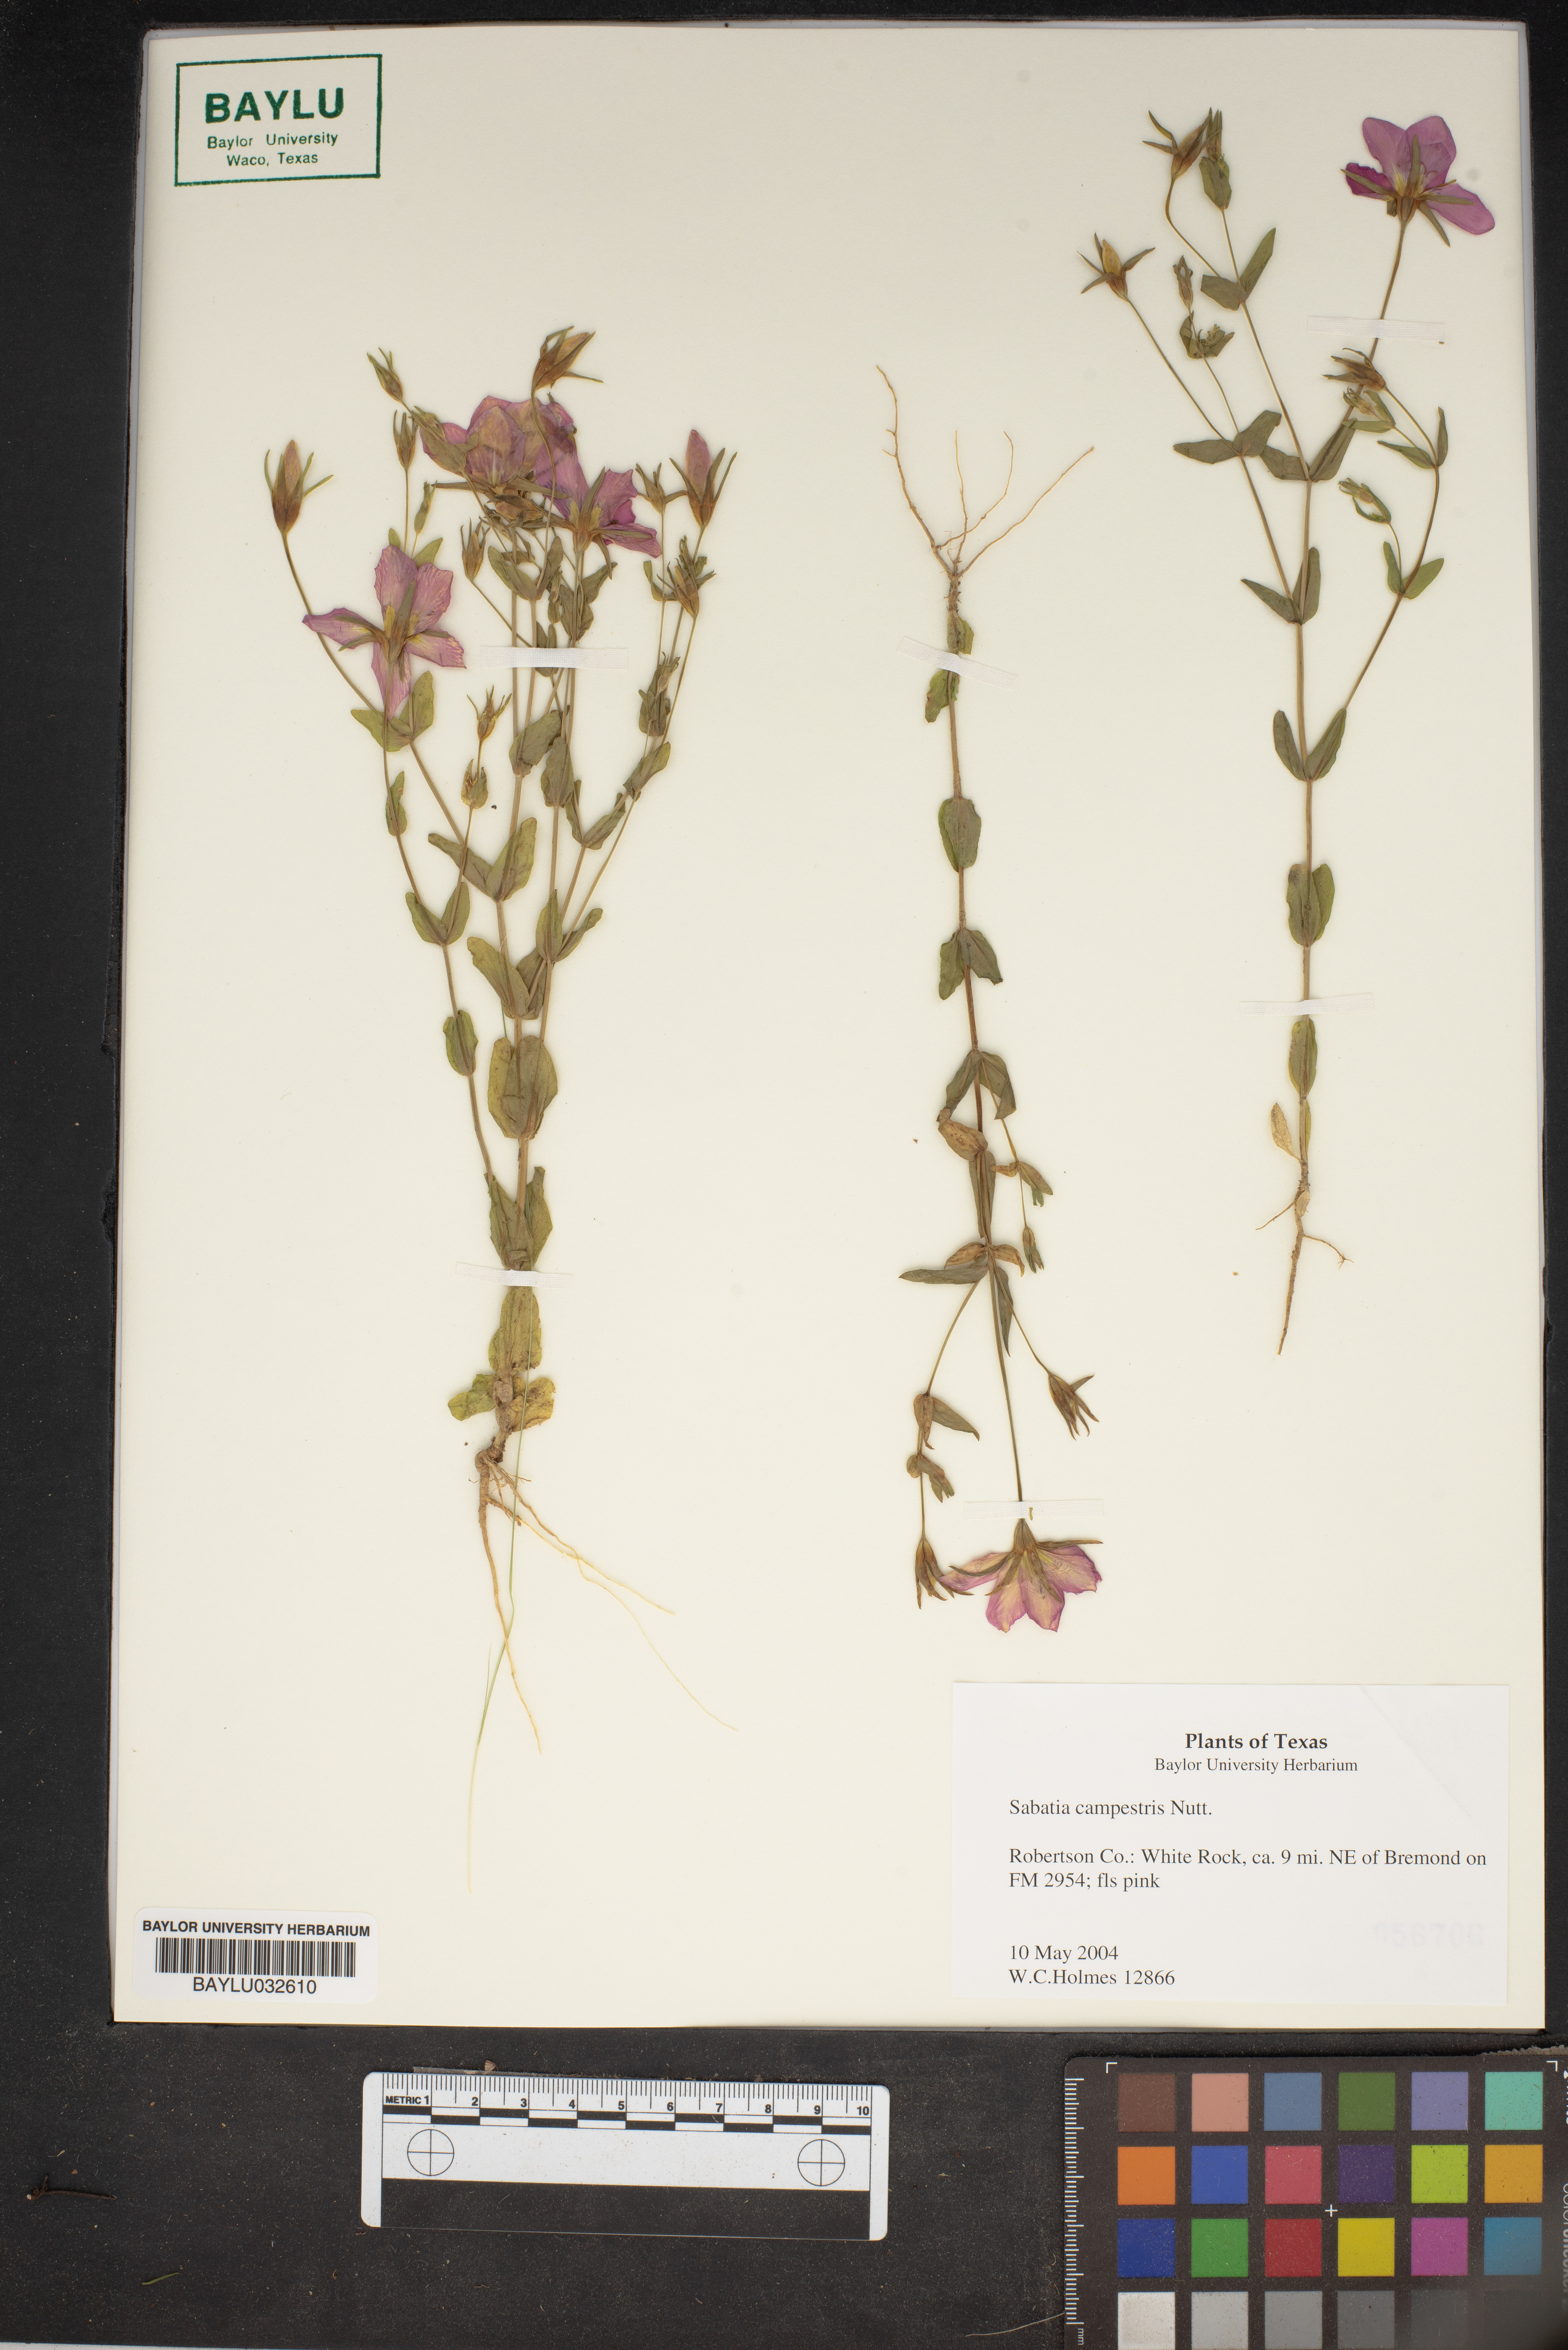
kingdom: Plantae
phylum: Tracheophyta
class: Magnoliopsida
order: Gentianales
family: Gentianaceae
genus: Sabatia
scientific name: Sabatia campestris
